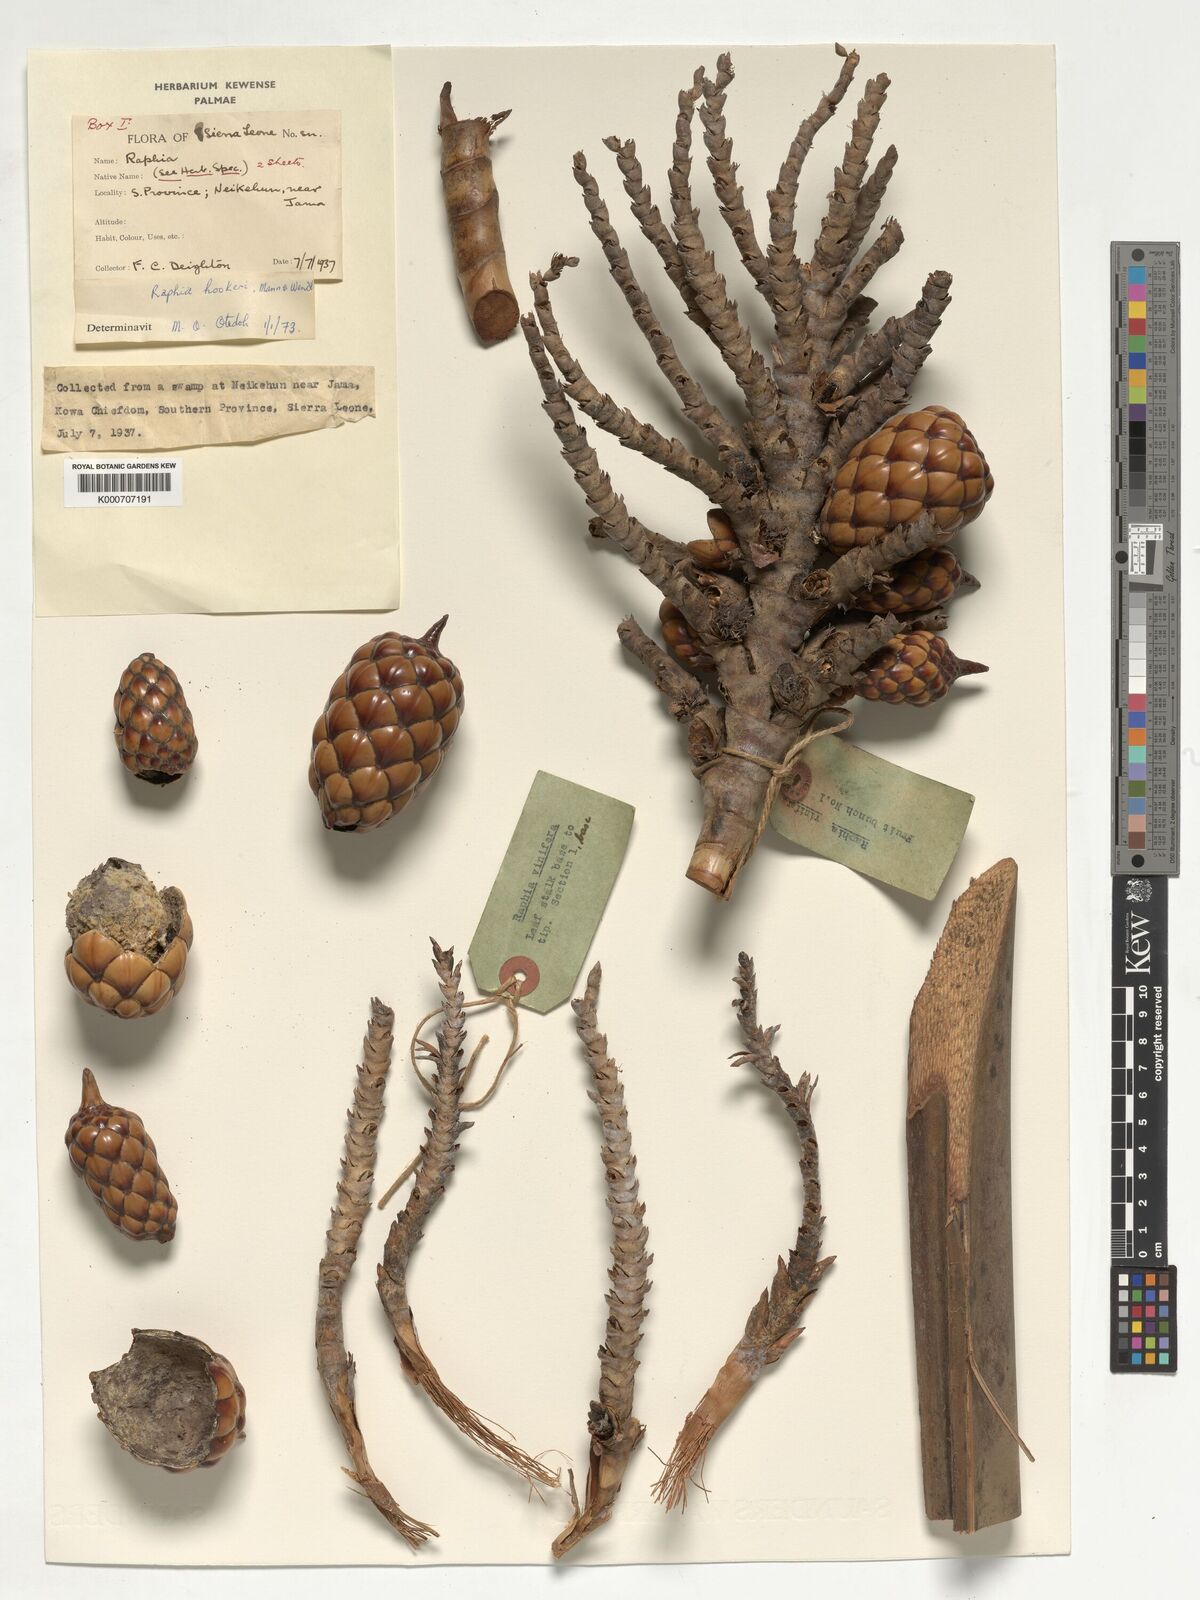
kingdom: Plantae
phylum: Tracheophyta
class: Liliopsida
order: Arecales
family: Arecaceae
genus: Raphia
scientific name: Raphia hookeri
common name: Wine palm
